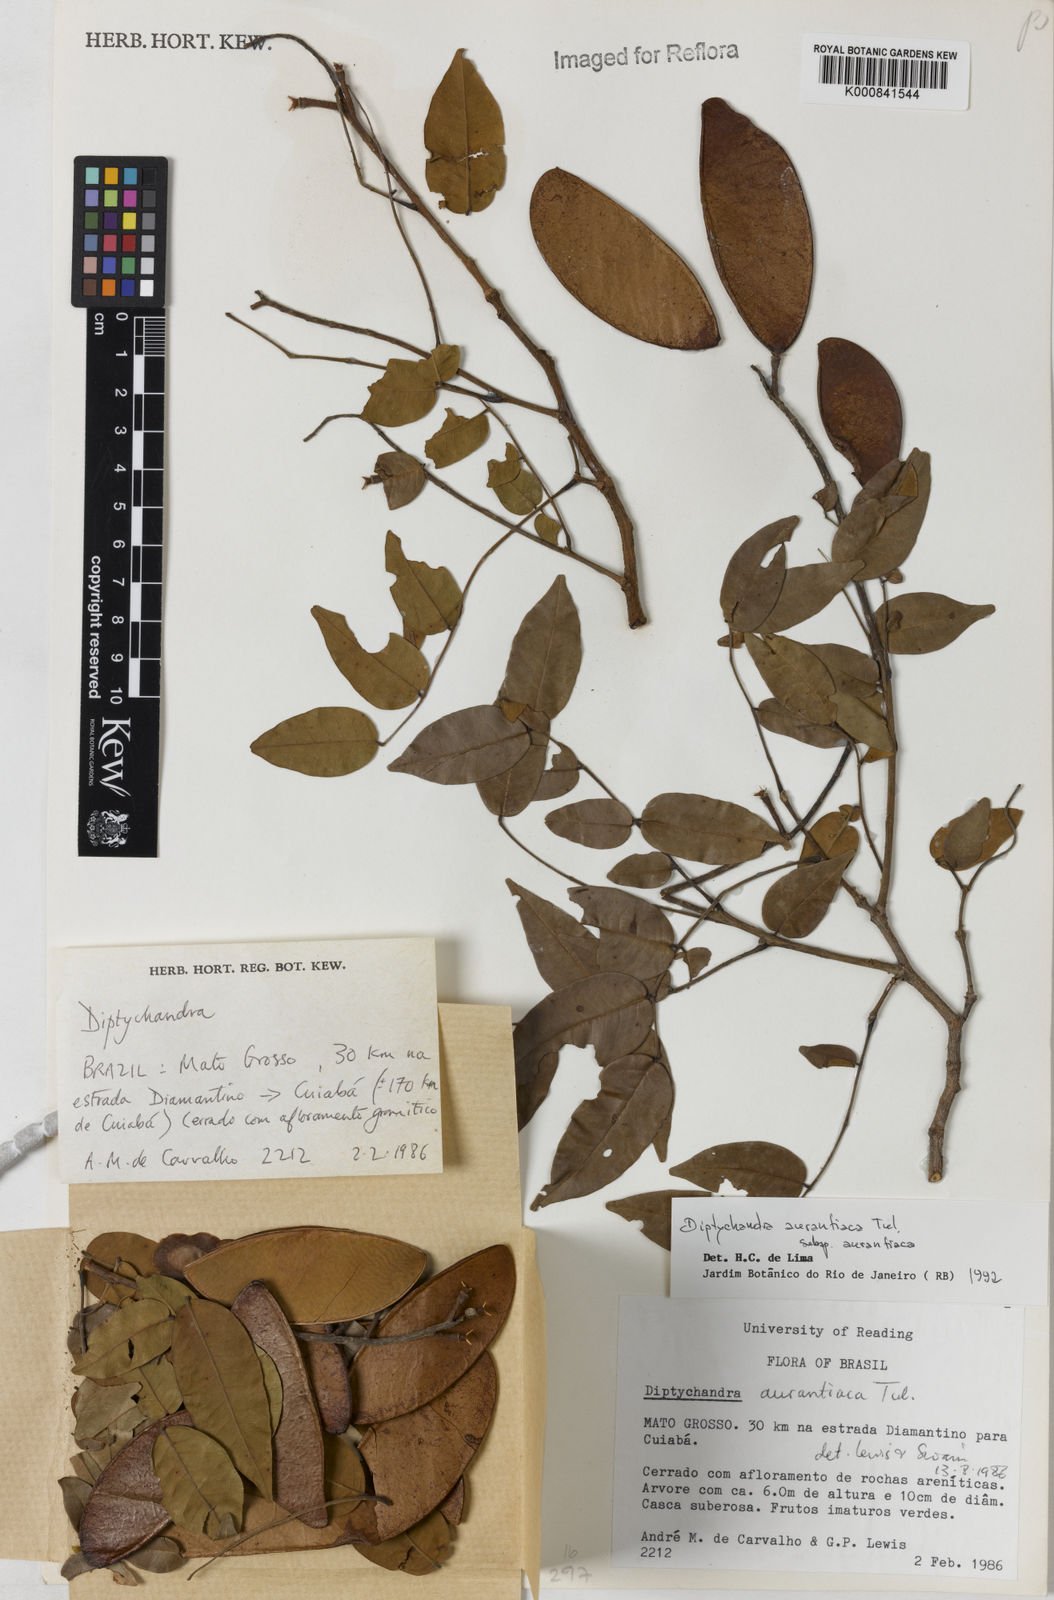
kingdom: Plantae
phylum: Tracheophyta
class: Magnoliopsida
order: Fabales
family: Fabaceae
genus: Diptychandra
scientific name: Diptychandra aurantiaca
